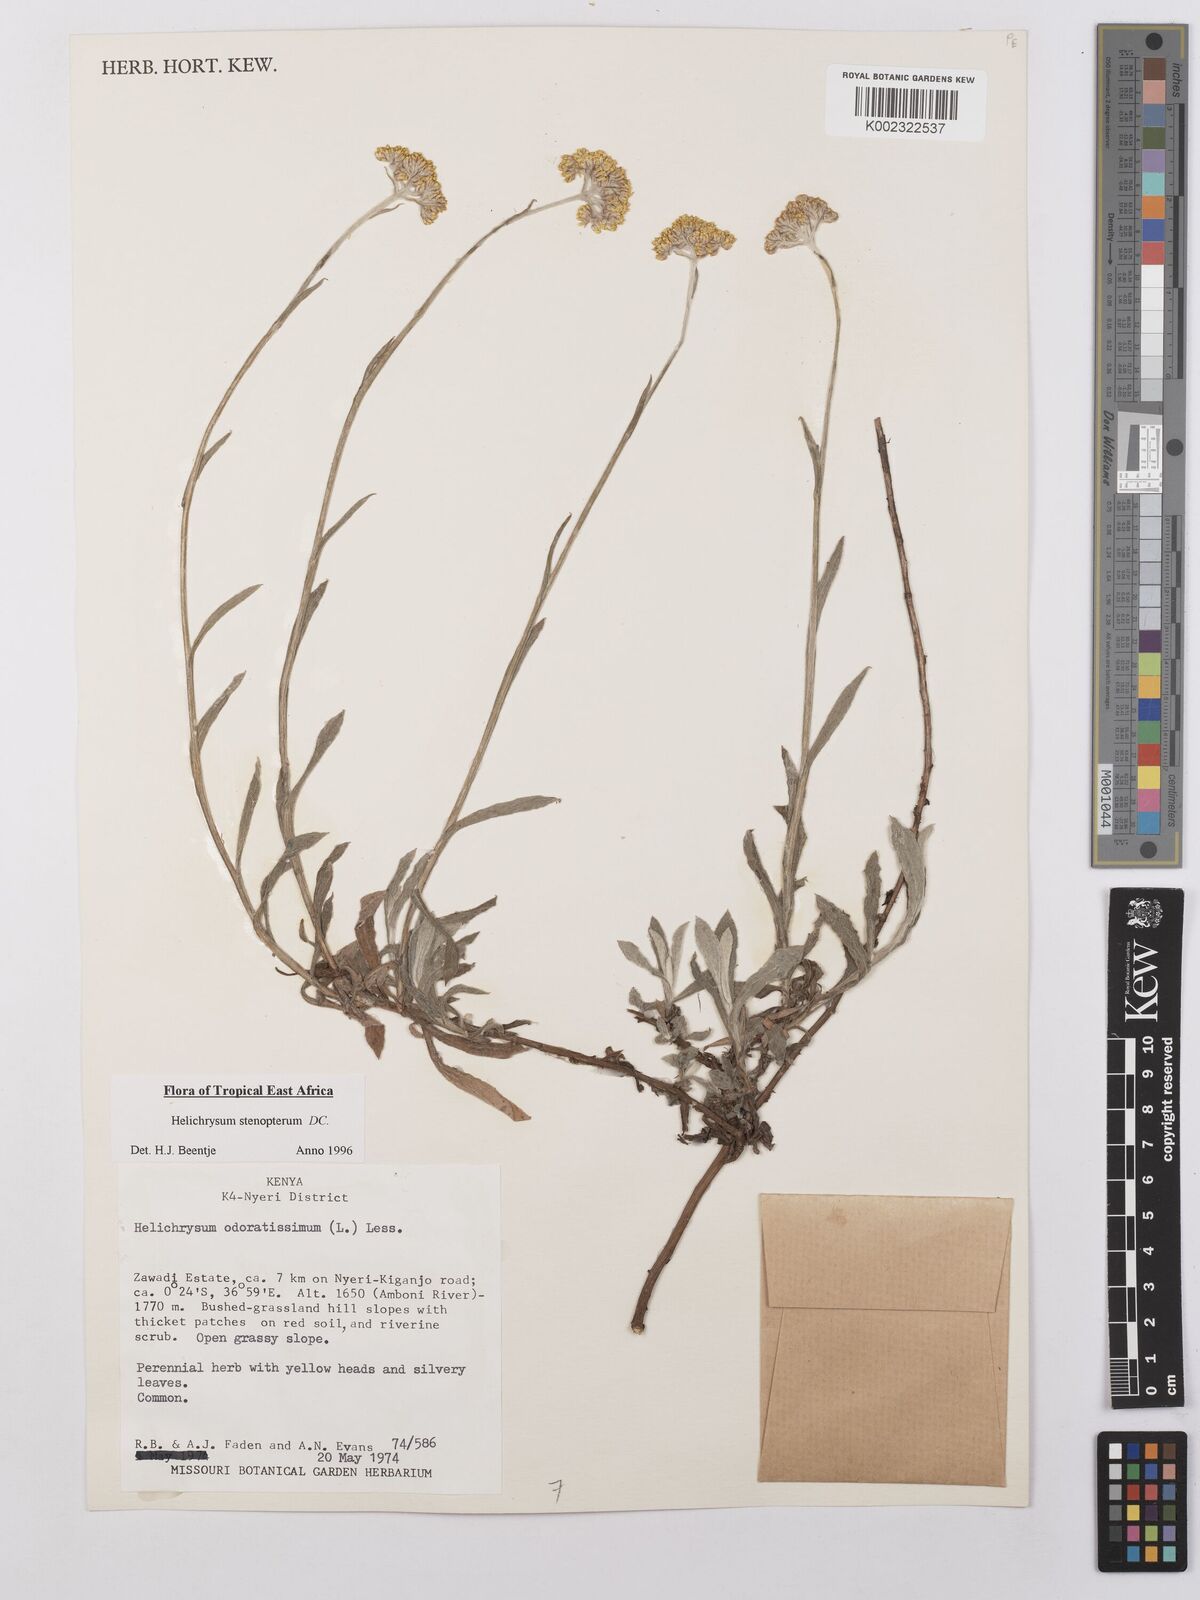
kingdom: Plantae
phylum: Tracheophyta
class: Magnoliopsida
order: Asterales
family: Asteraceae
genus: Helichrysum
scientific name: Helichrysum stenopterum
